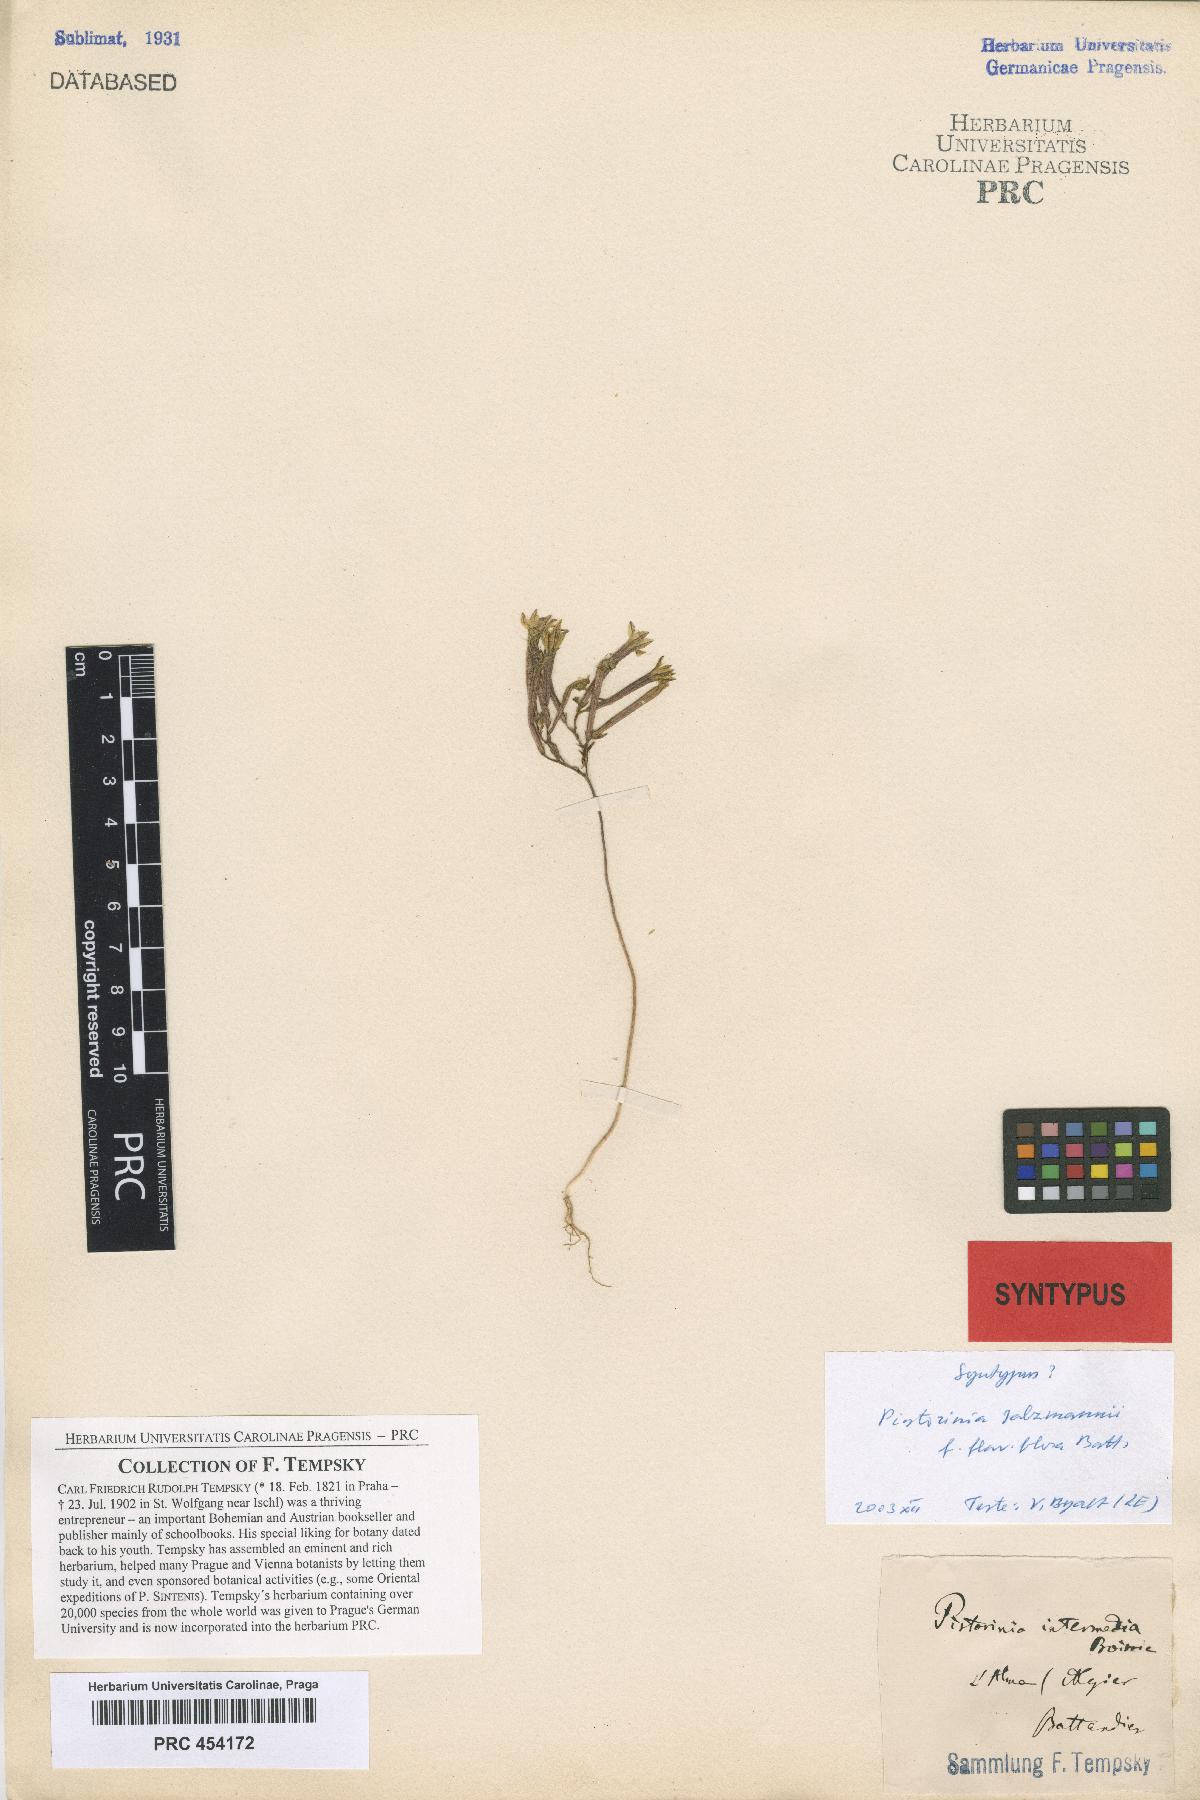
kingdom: Plantae
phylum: Tracheophyta
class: Magnoliopsida
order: Saxifragales
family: Crassulaceae
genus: Pistorinia
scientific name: Pistorinia breviflora
